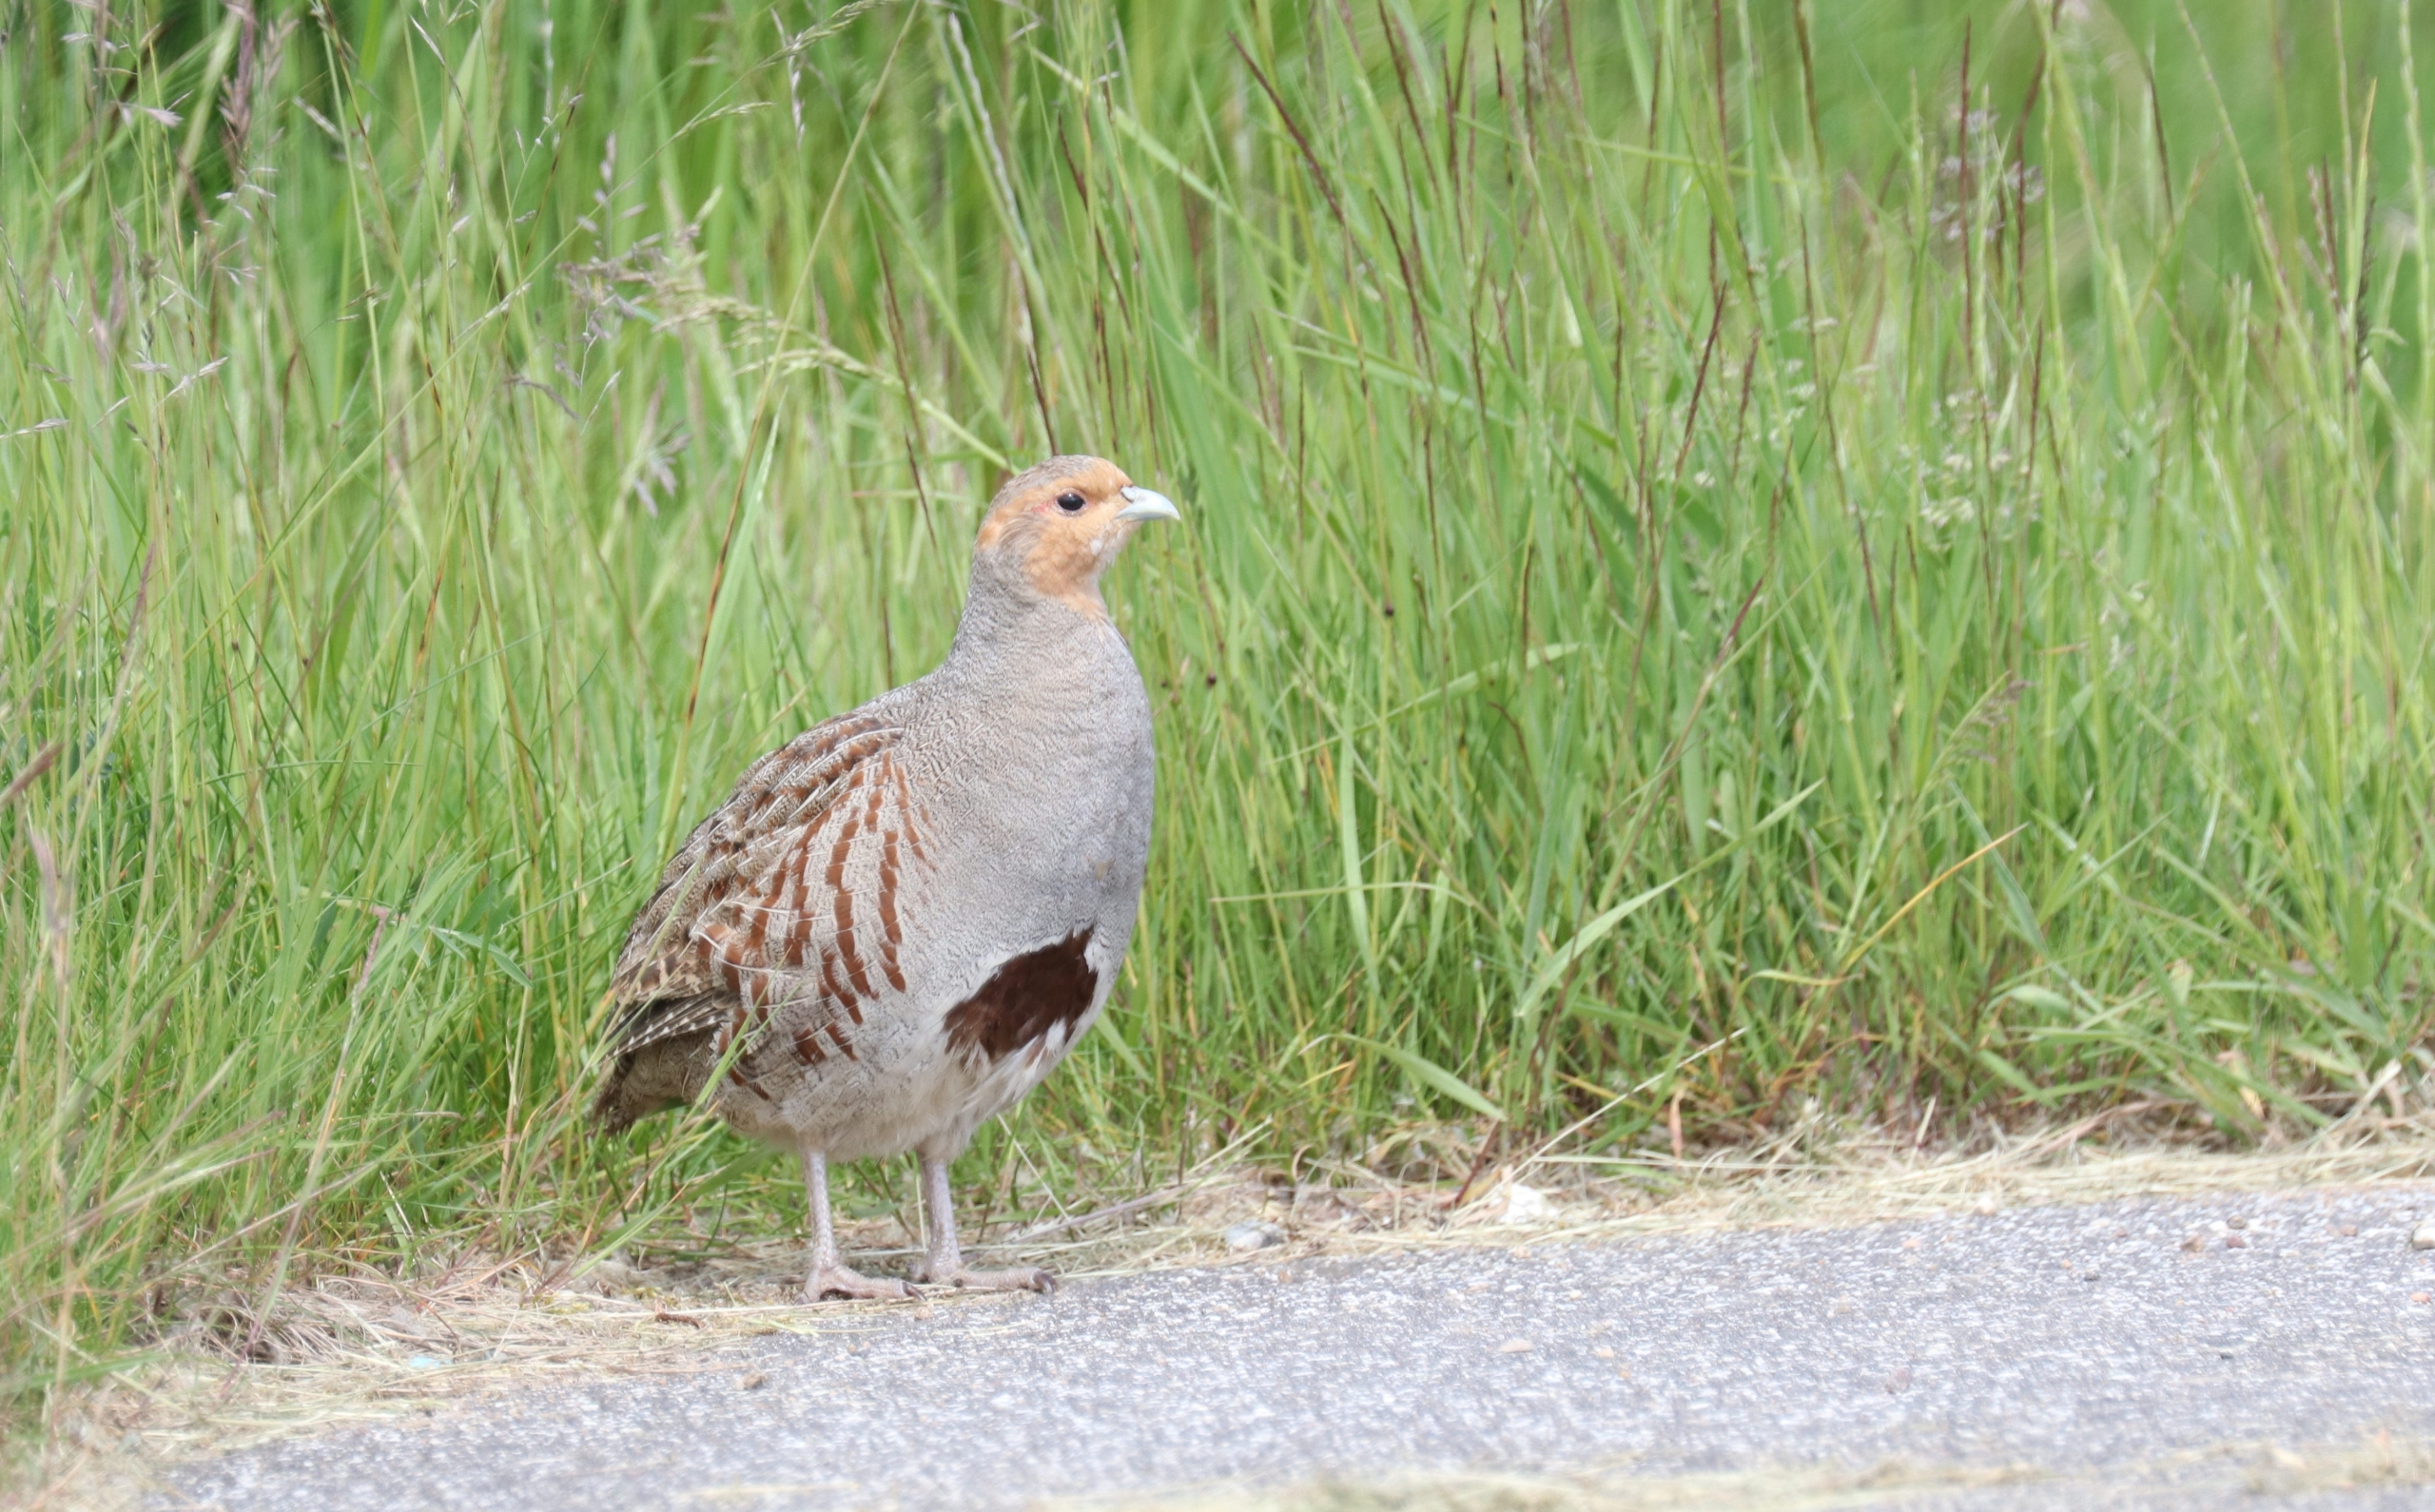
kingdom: Animalia
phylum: Chordata
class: Aves
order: Galliformes
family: Phasianidae
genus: Perdix
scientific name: Perdix perdix
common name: Agerhøne
